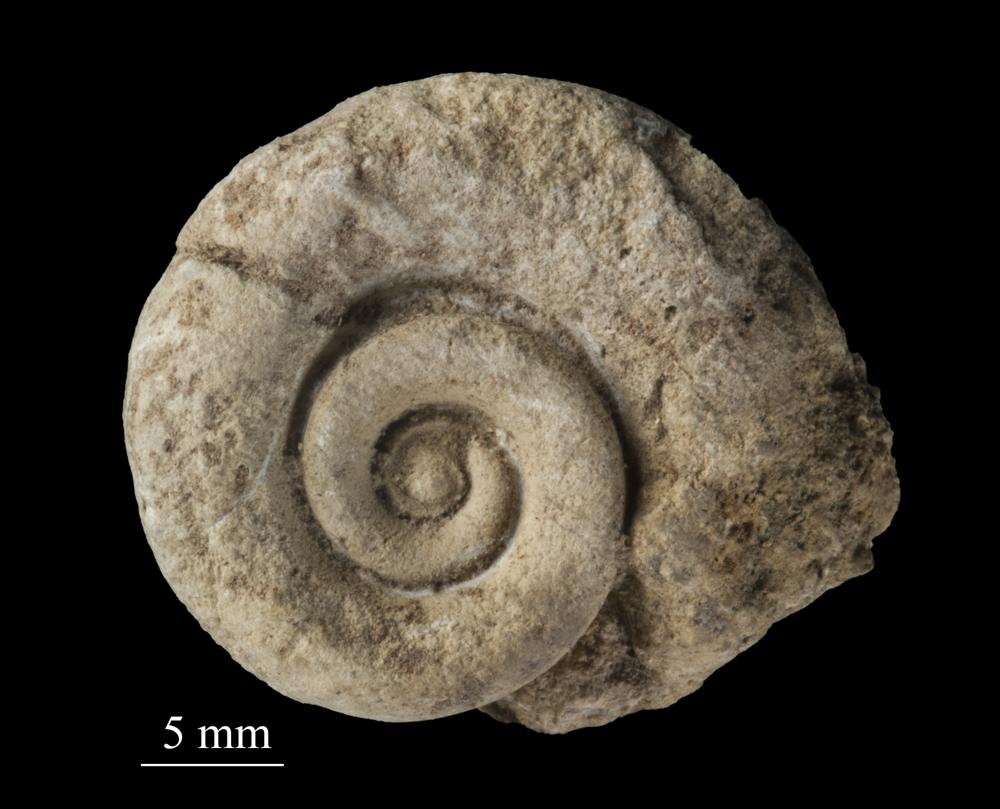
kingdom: Animalia
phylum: Mollusca
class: Gastropoda
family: Euomphalidae
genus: Euomphalus
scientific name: Euomphalus
